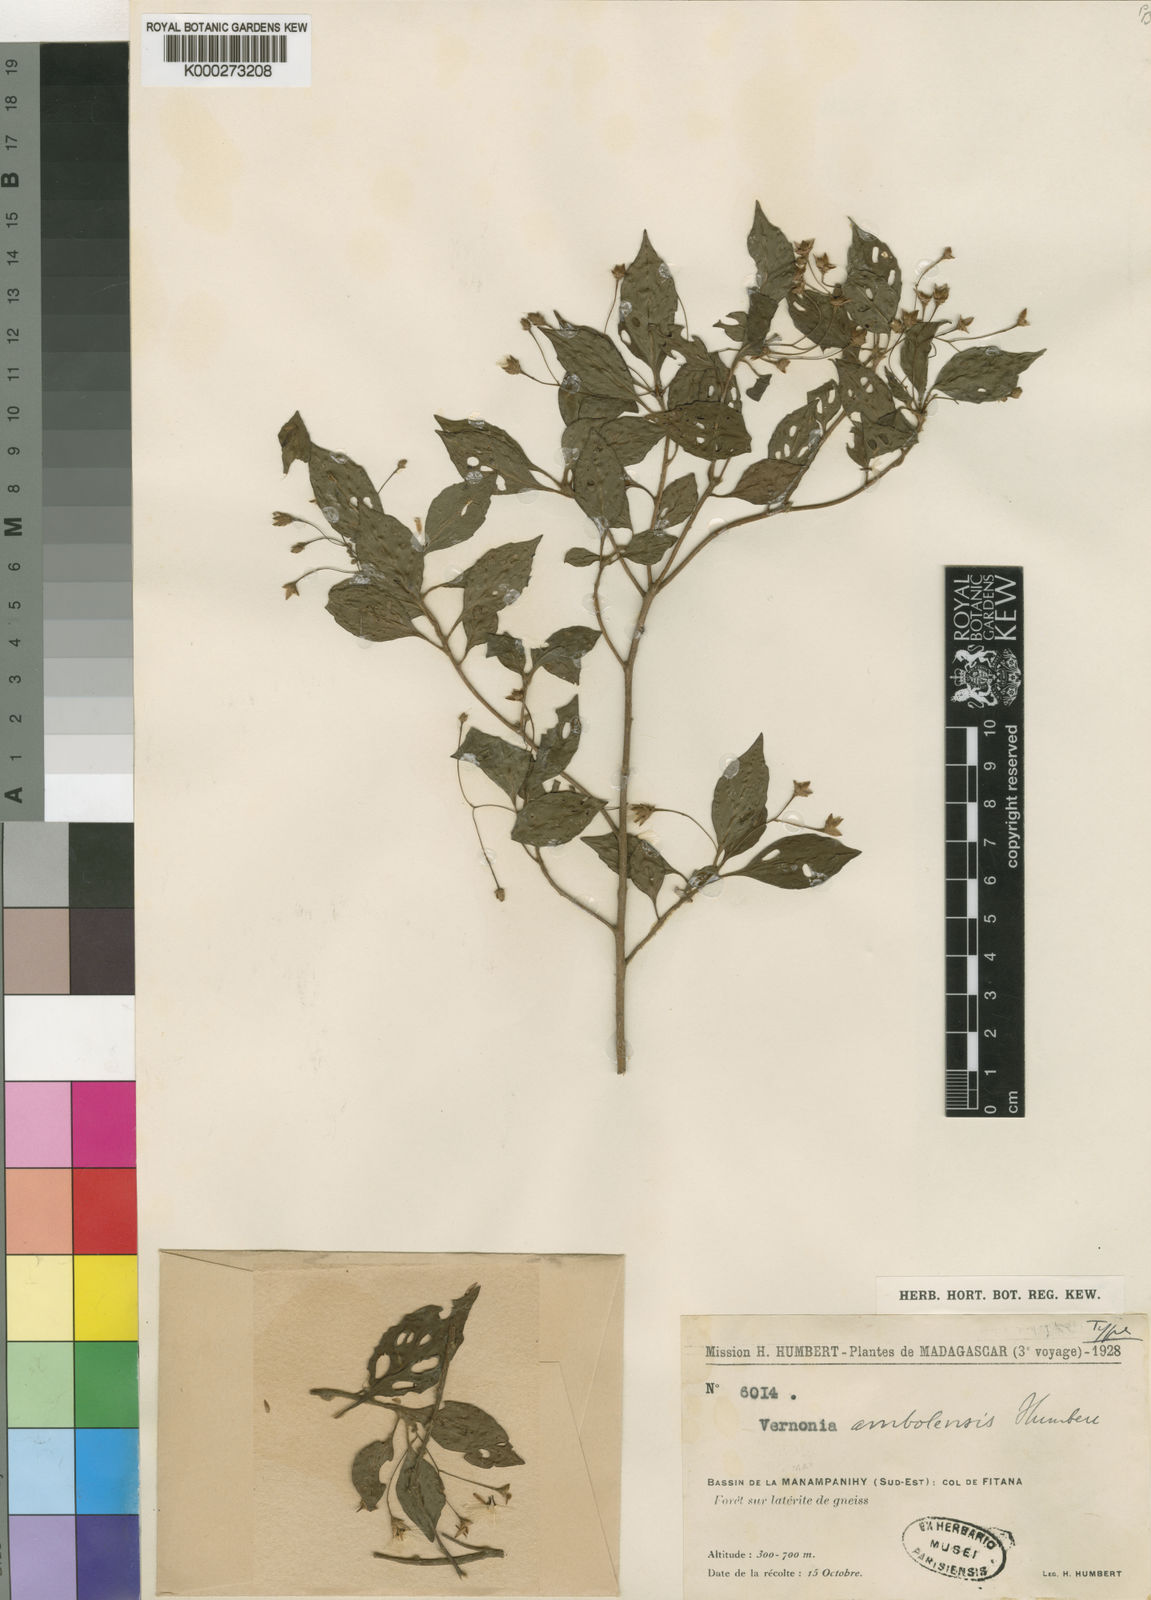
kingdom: Plantae
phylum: Tracheophyta
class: Magnoliopsida
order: Asterales
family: Asteraceae
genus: Vernonia
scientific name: Vernonia ambolensis
